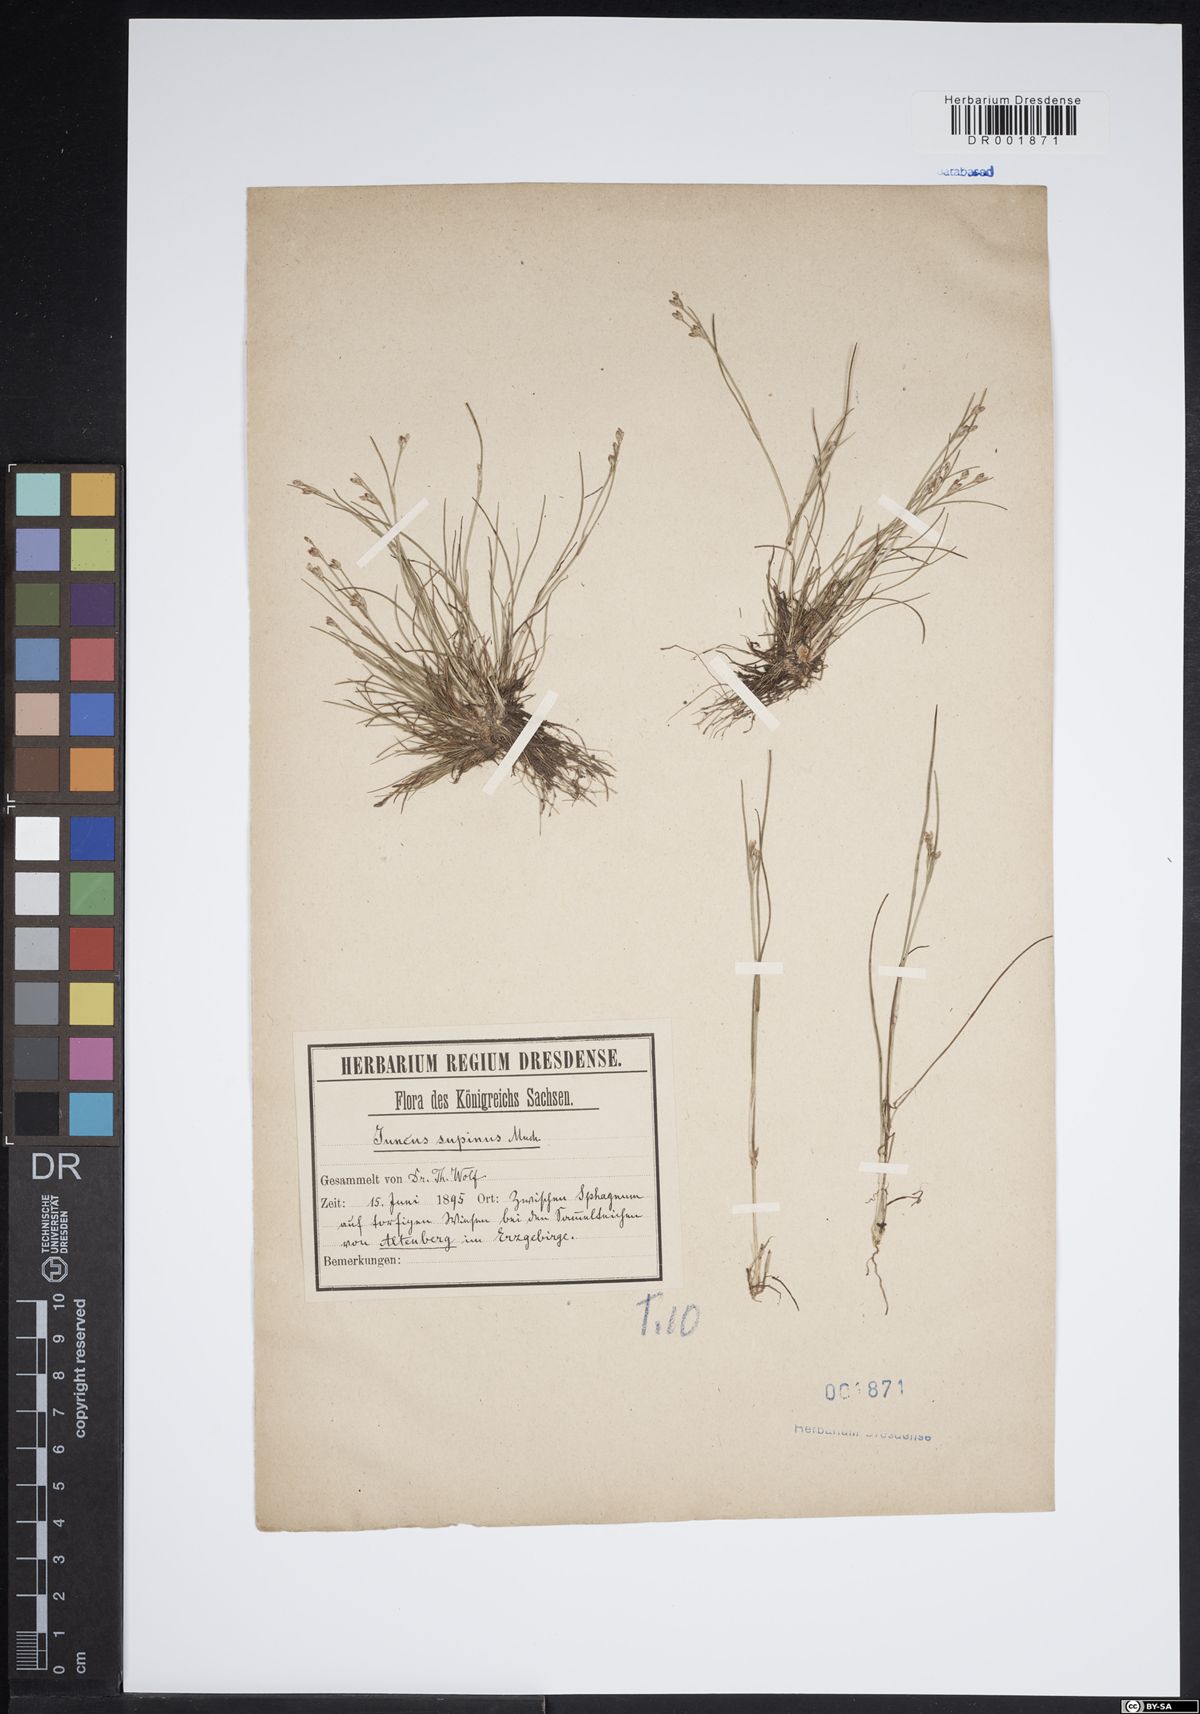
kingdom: Plantae
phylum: Tracheophyta
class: Liliopsida
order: Poales
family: Juncaceae
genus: Juncus
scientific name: Juncus bulbosus
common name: Bulbous rush
